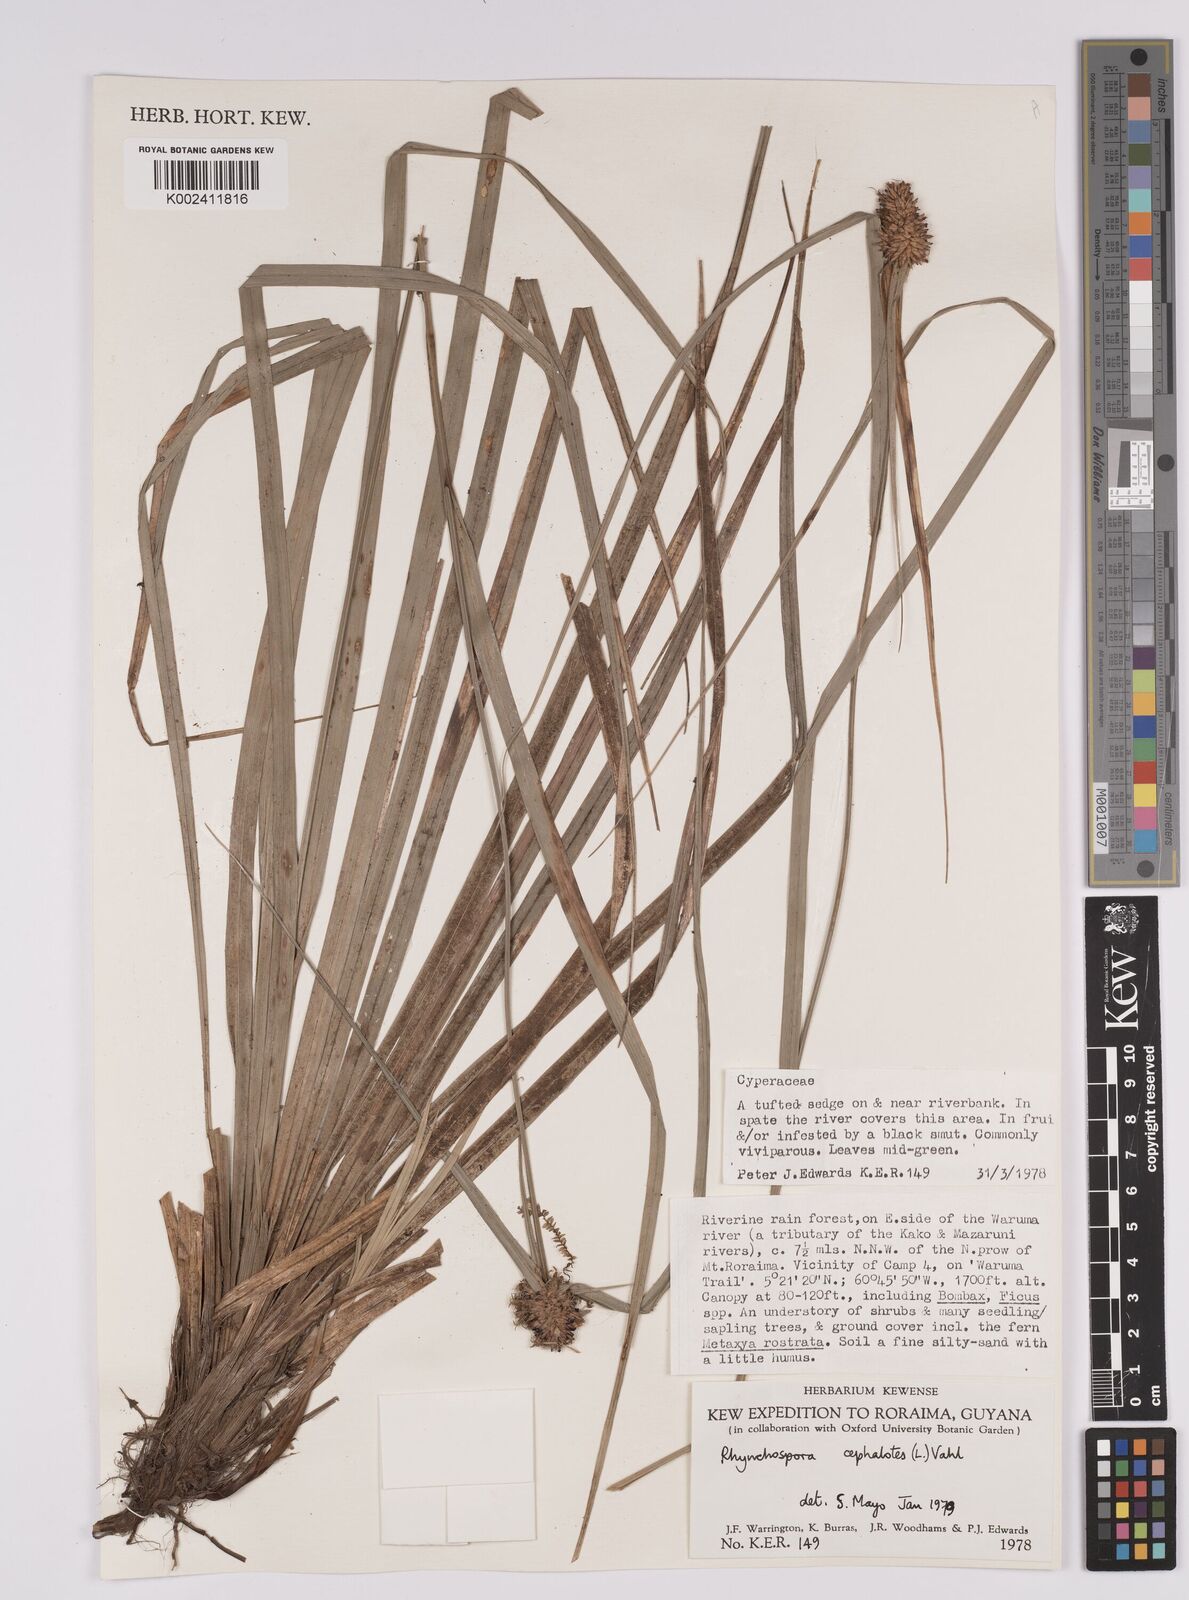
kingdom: Plantae
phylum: Tracheophyta
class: Liliopsida
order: Poales
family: Cyperaceae
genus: Rhynchospora
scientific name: Rhynchospora cephalotes
